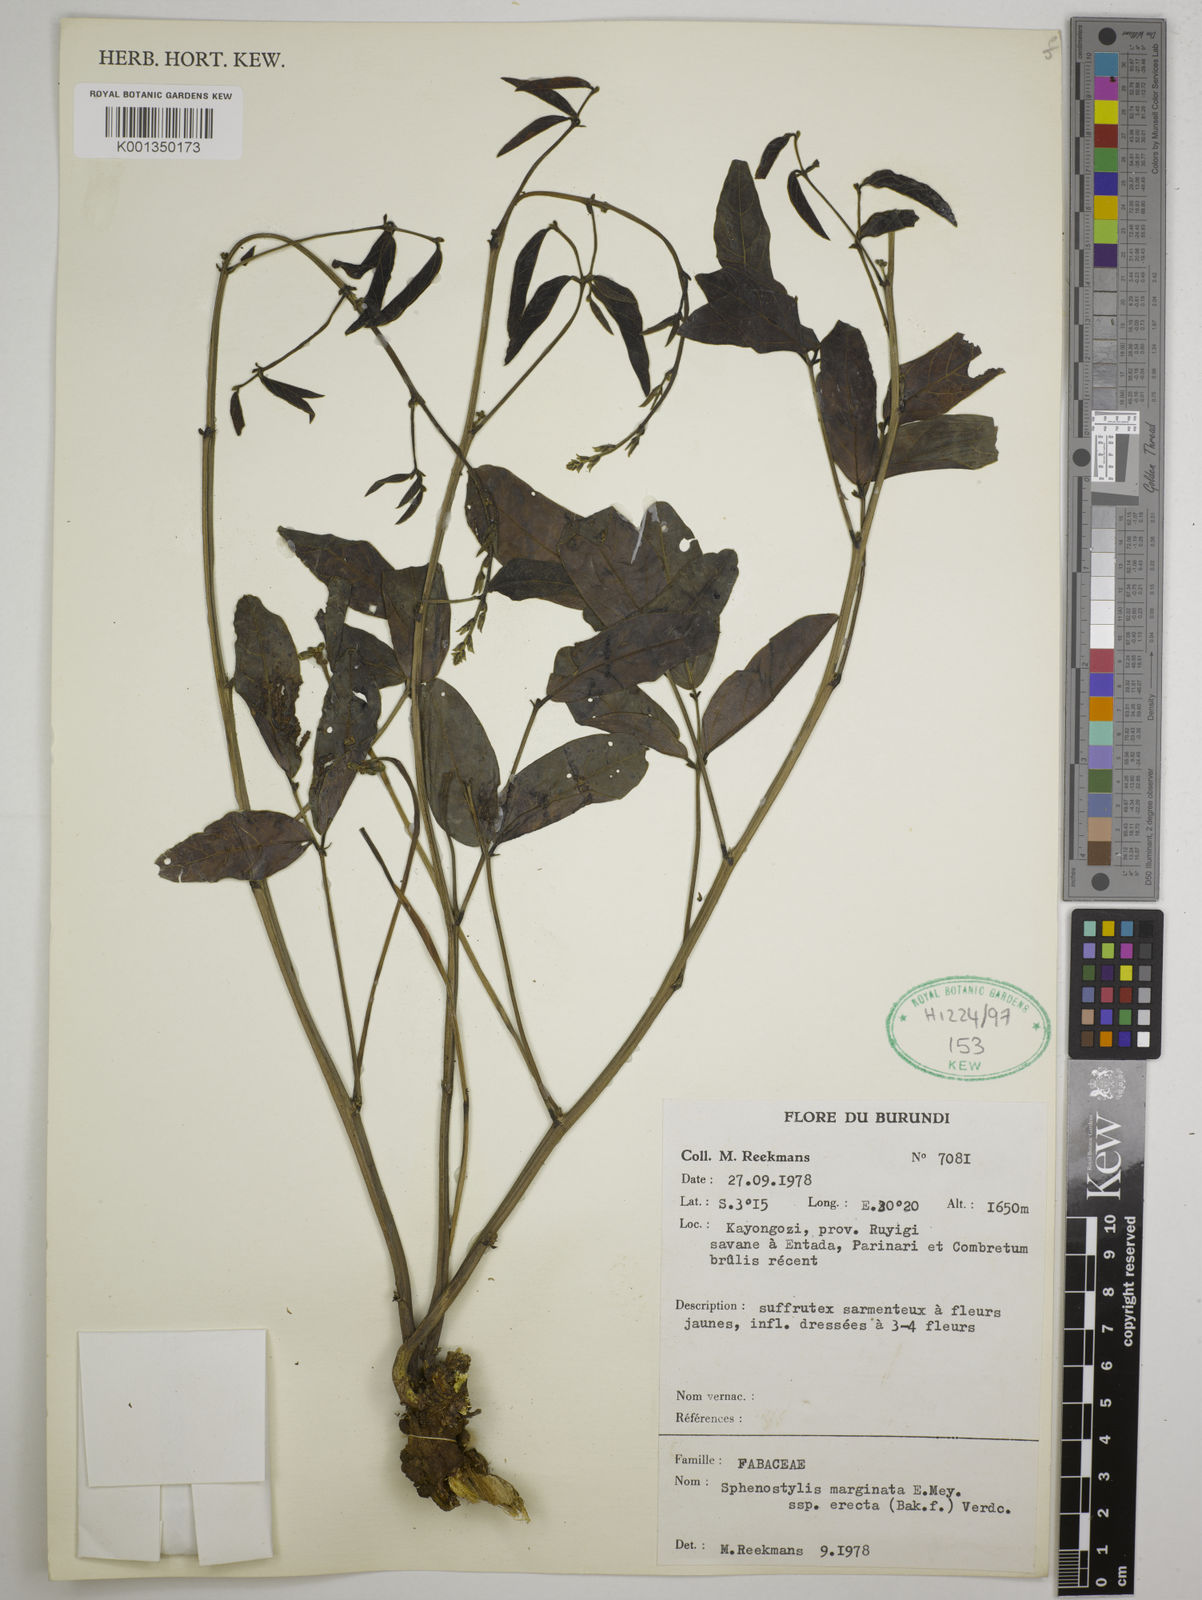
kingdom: Plantae
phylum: Tracheophyta
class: Magnoliopsida
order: Fabales
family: Fabaceae
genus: Sphenostylis
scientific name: Sphenostylis erecta
